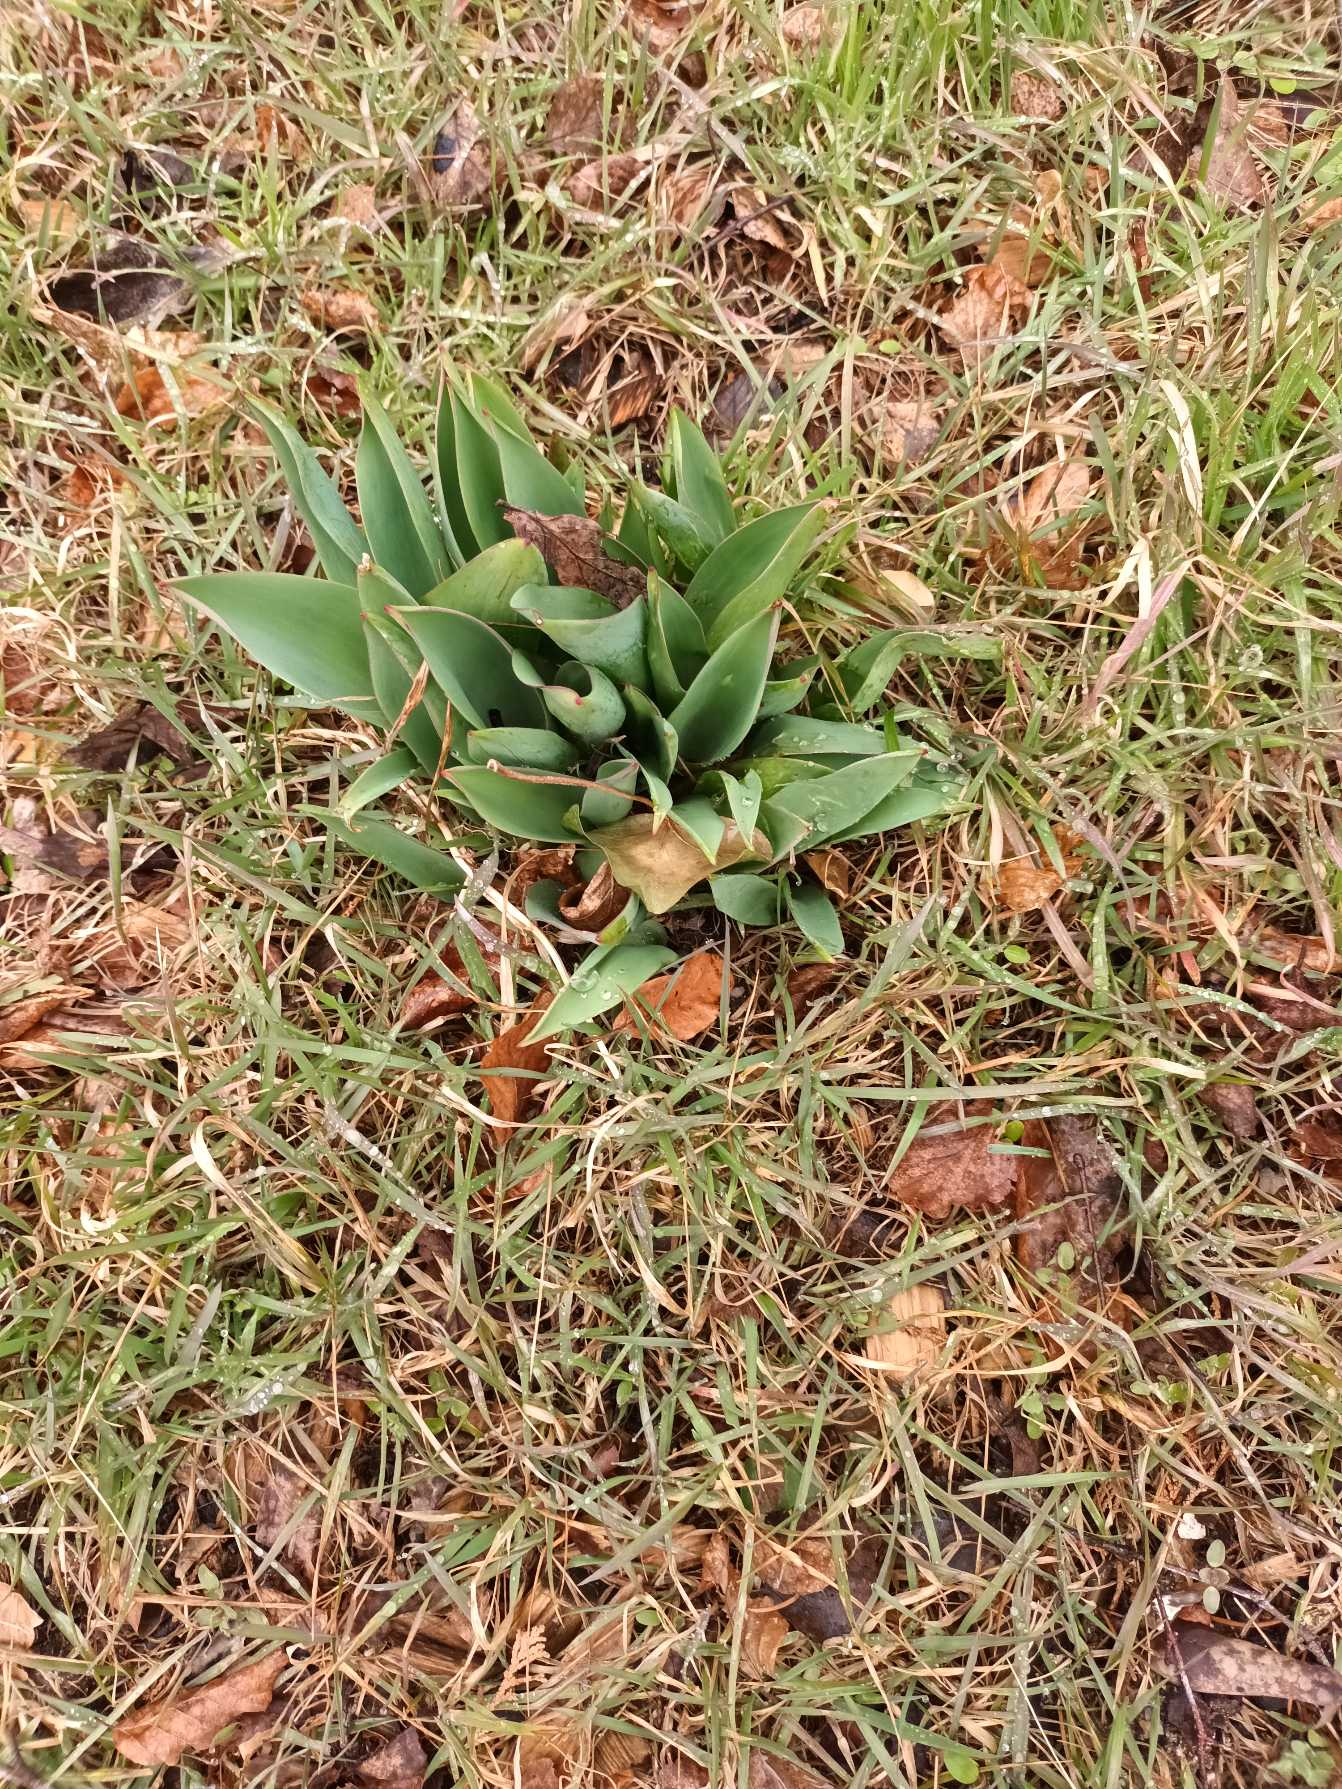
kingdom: Plantae
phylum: Tracheophyta
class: Liliopsida
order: Liliales
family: Liliaceae
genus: Tulipa
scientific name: Tulipa gesneriana
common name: Have-tulipan
